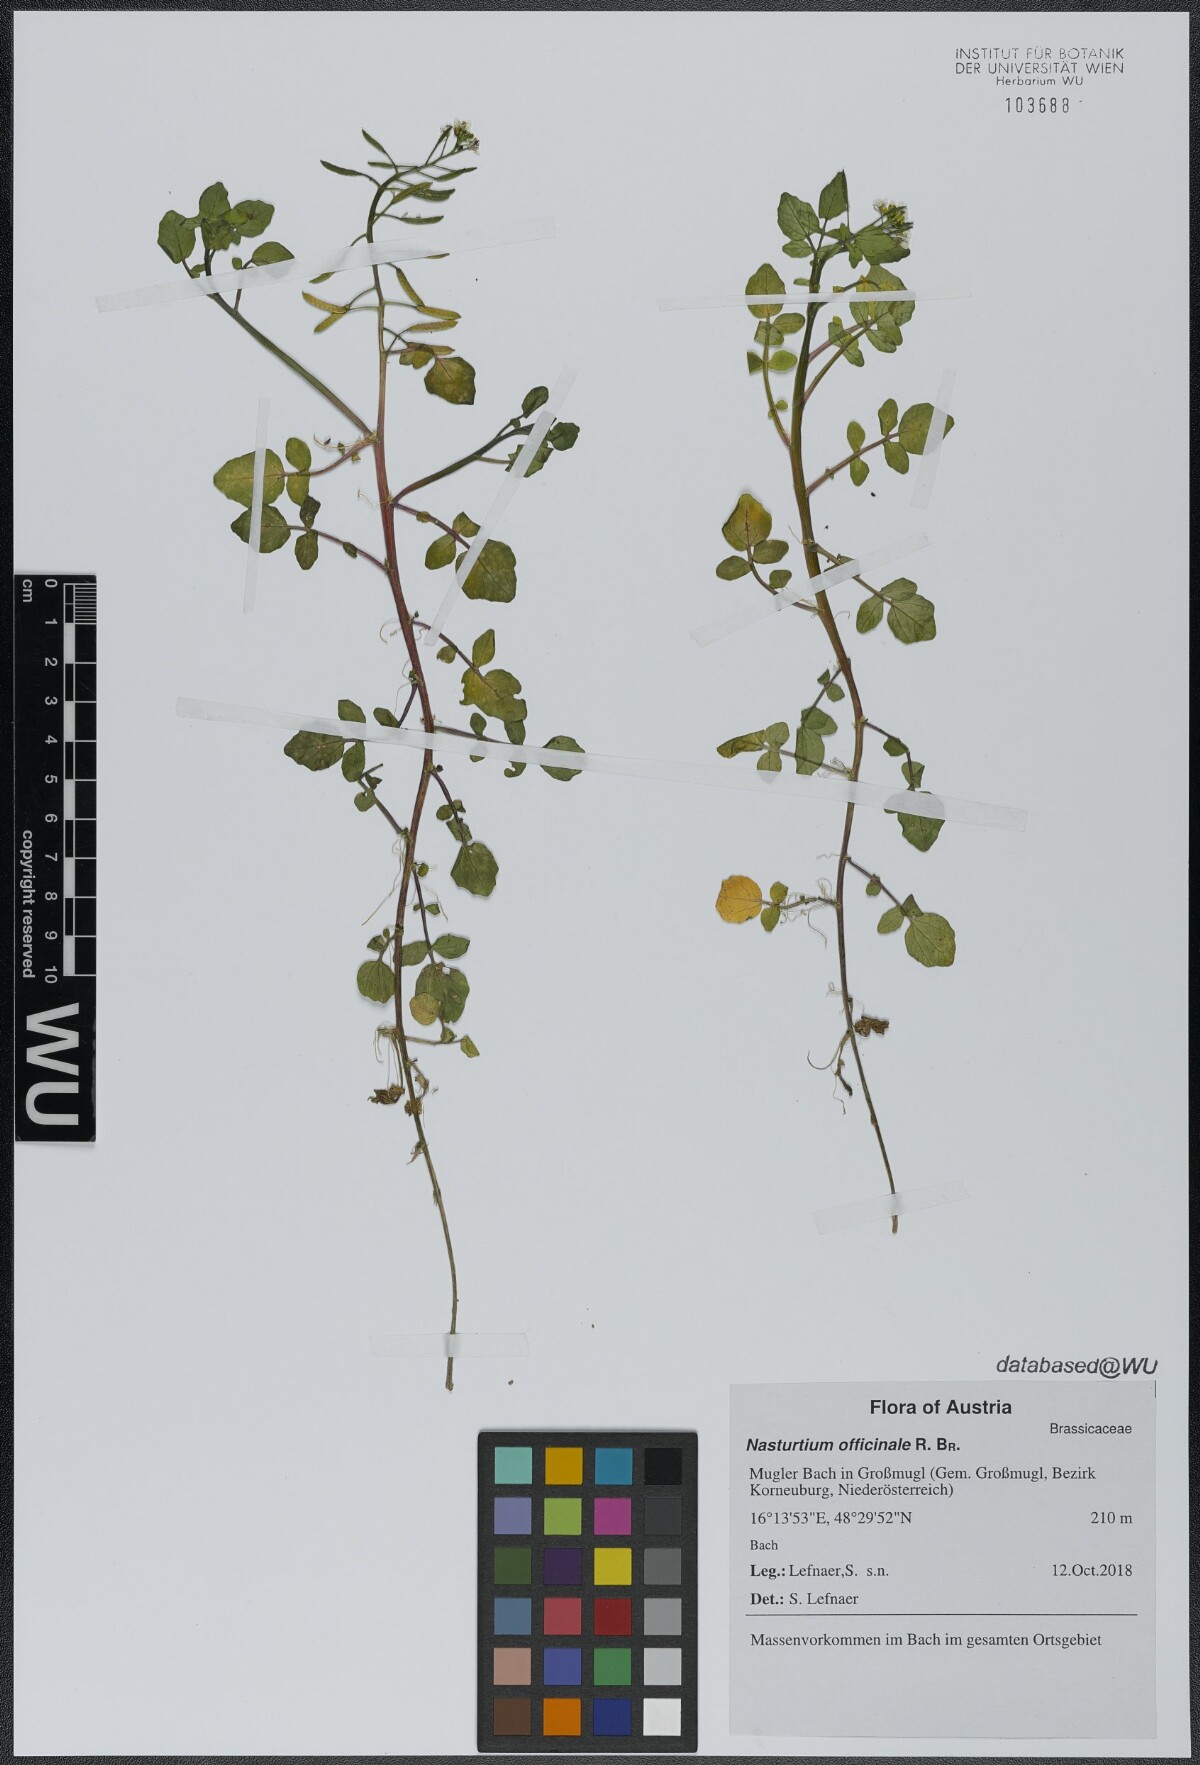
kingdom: Plantae
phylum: Tracheophyta
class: Magnoliopsida
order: Brassicales
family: Brassicaceae
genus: Nasturtium
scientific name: Nasturtium officinale
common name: Watercress
